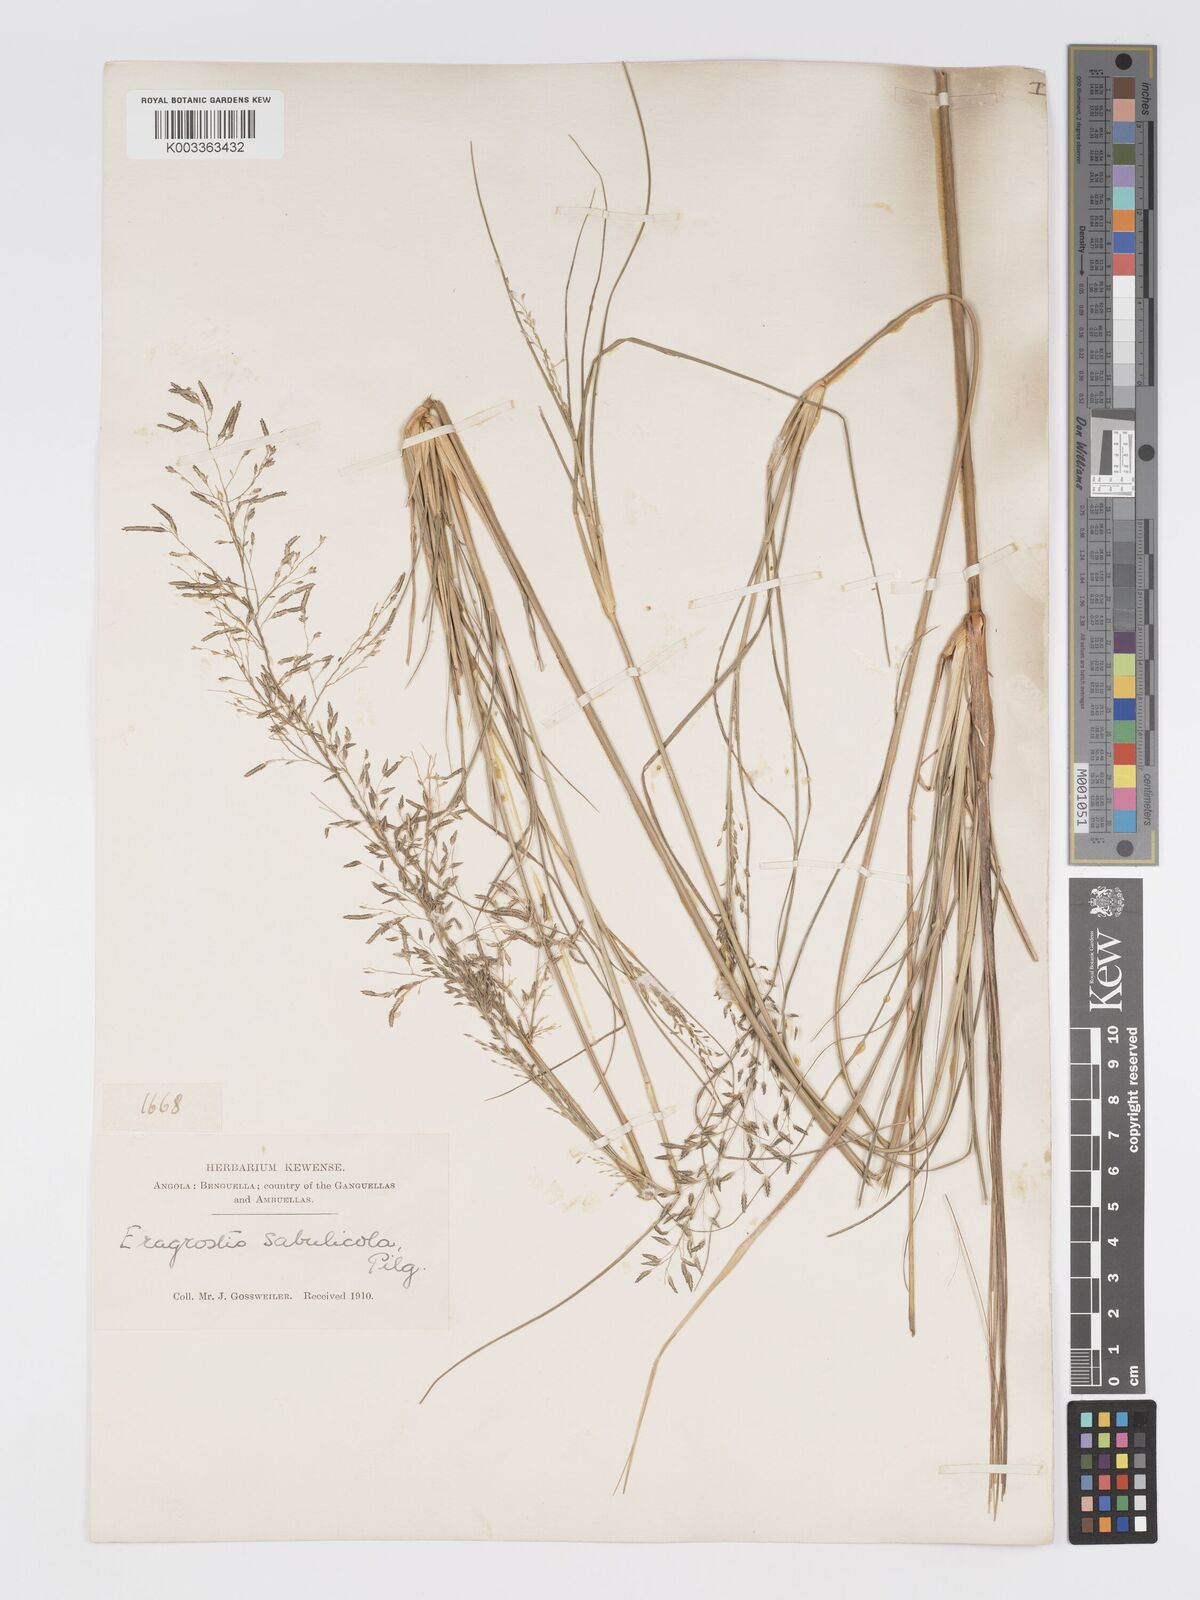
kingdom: Plantae
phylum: Tracheophyta
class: Liliopsida
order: Poales
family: Poaceae
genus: Eragrostis
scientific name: Eragrostis prolifera
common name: Dominican lovegrass
